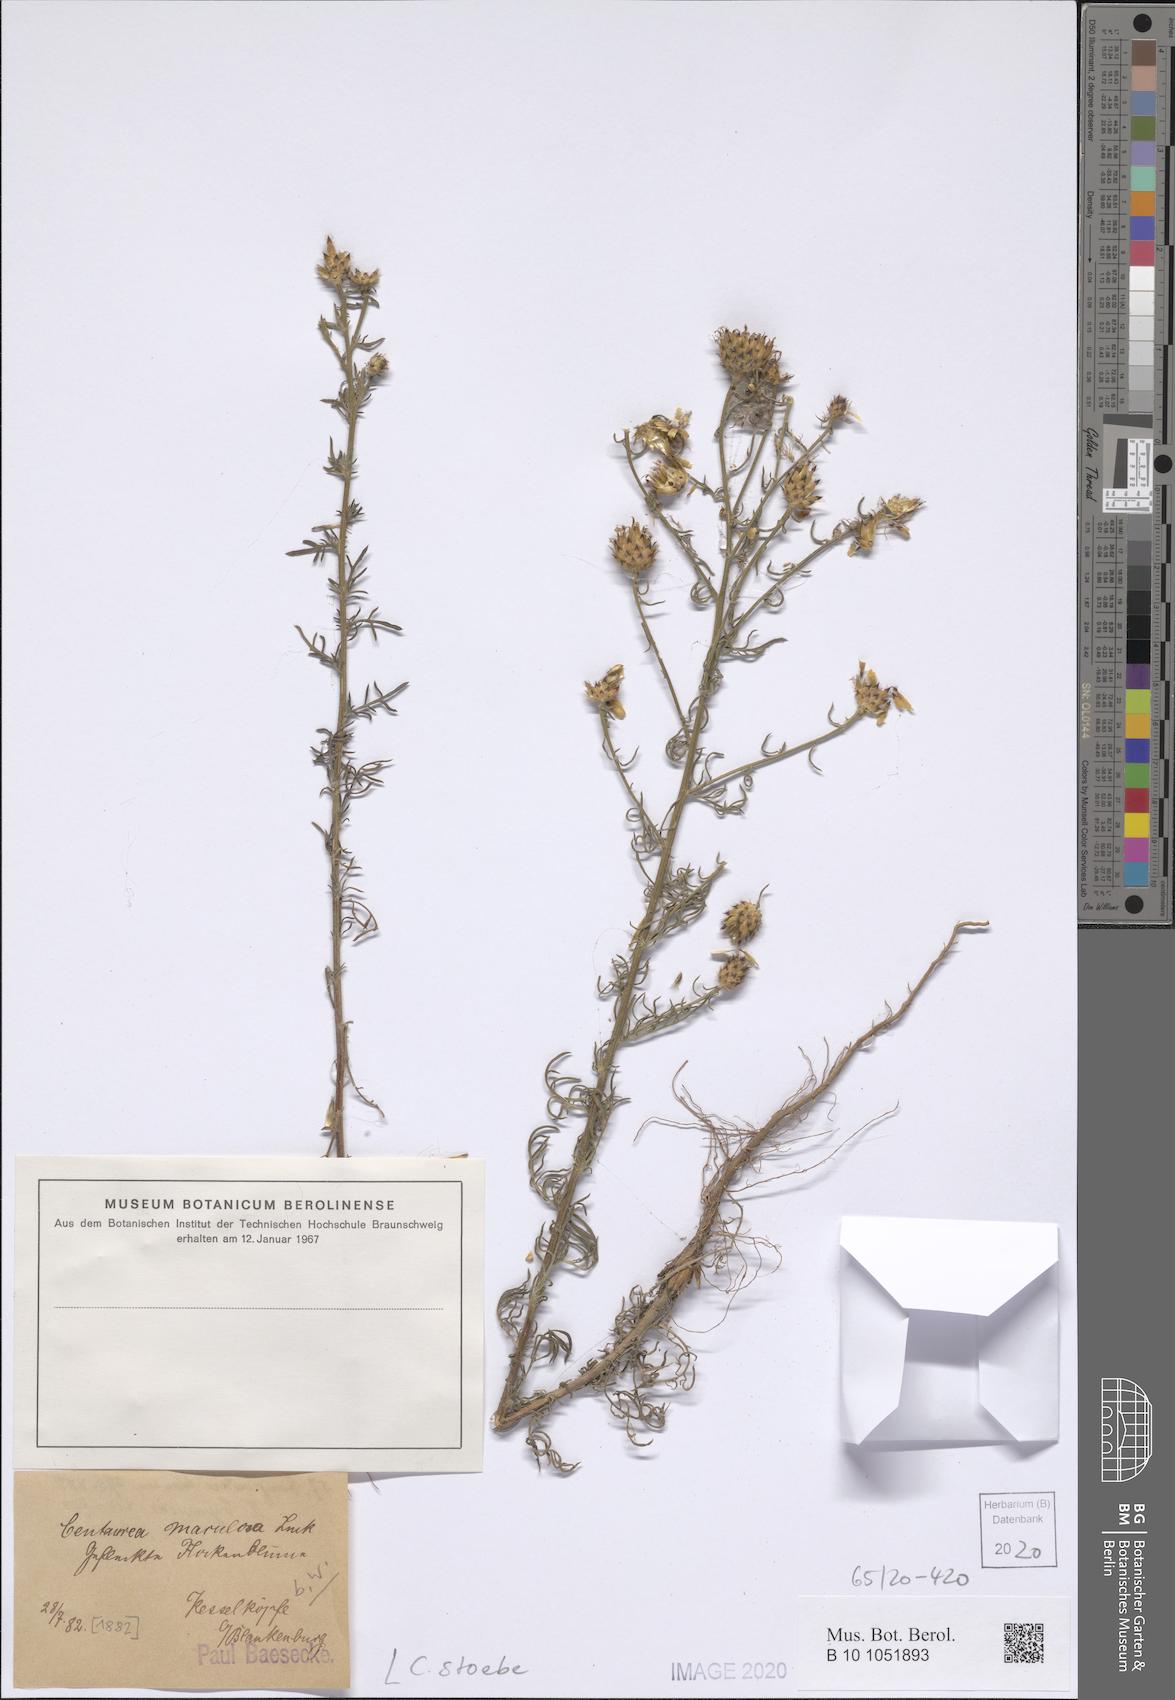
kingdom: Plantae
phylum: Tracheophyta
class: Magnoliopsida
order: Asterales
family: Asteraceae
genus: Centaurea
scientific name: Centaurea stoebe
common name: Spotted knapweed
